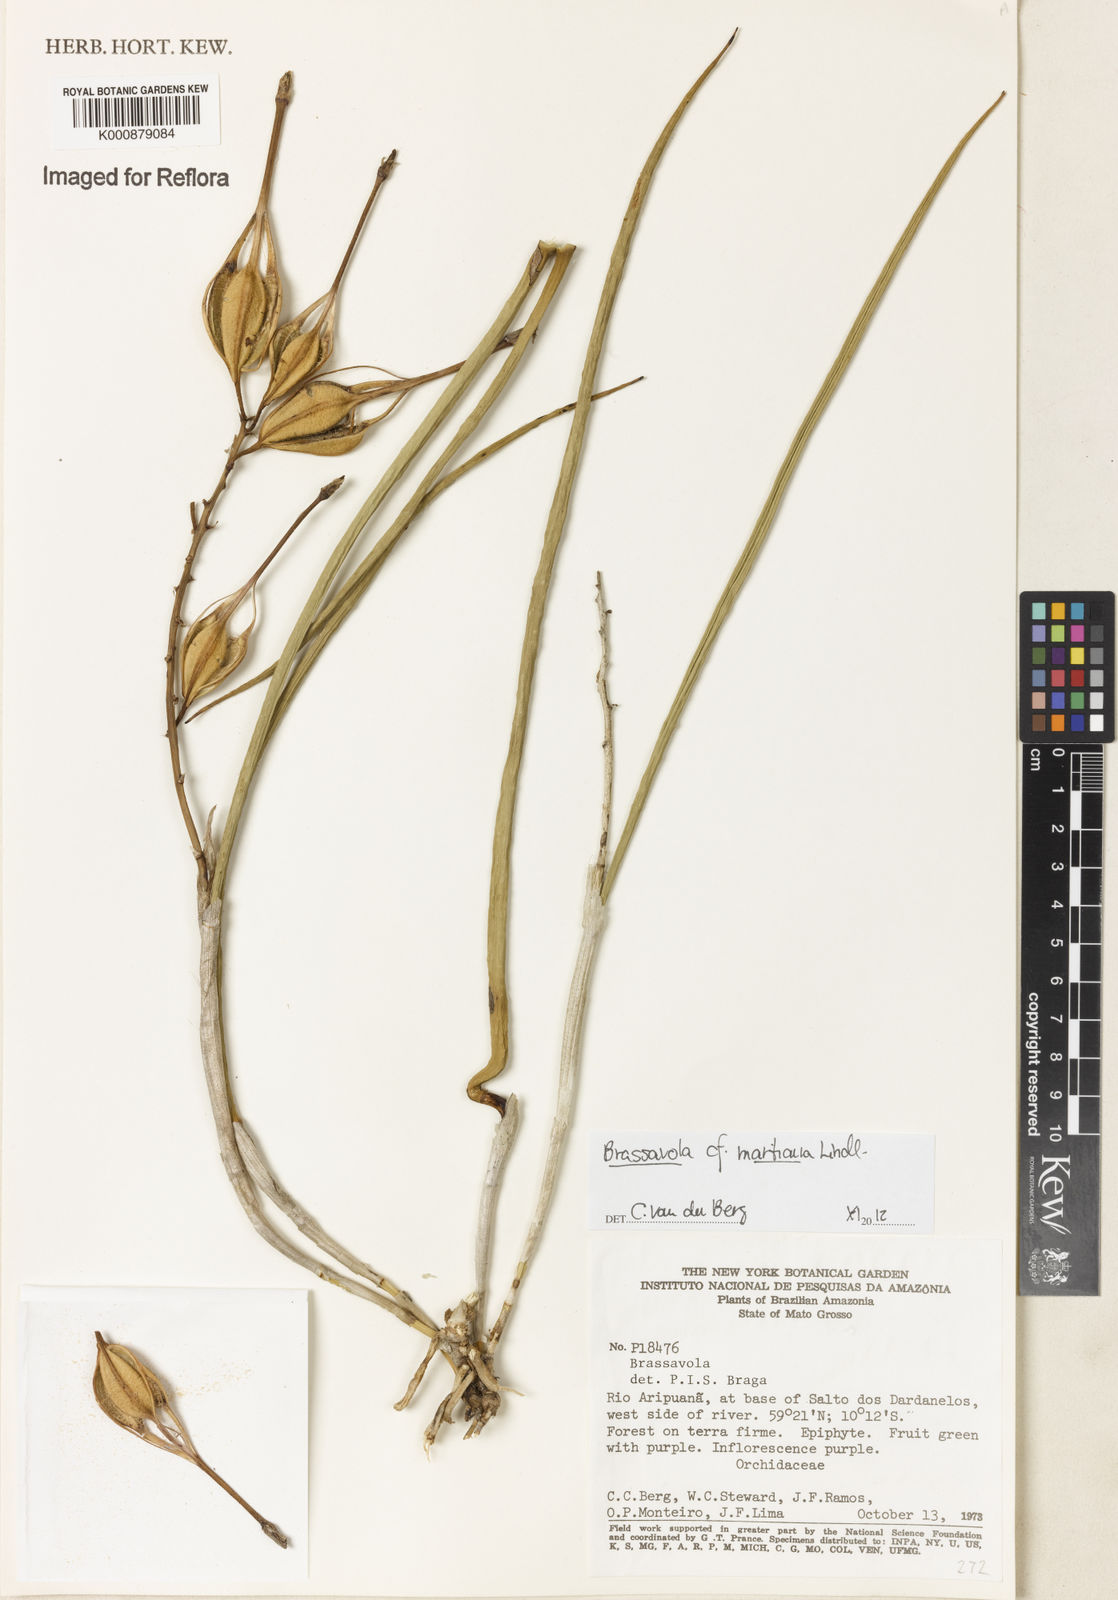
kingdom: Plantae
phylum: Tracheophyta
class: Liliopsida
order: Asparagales
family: Orchidaceae
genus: Brassavola
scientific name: Brassavola martiana
